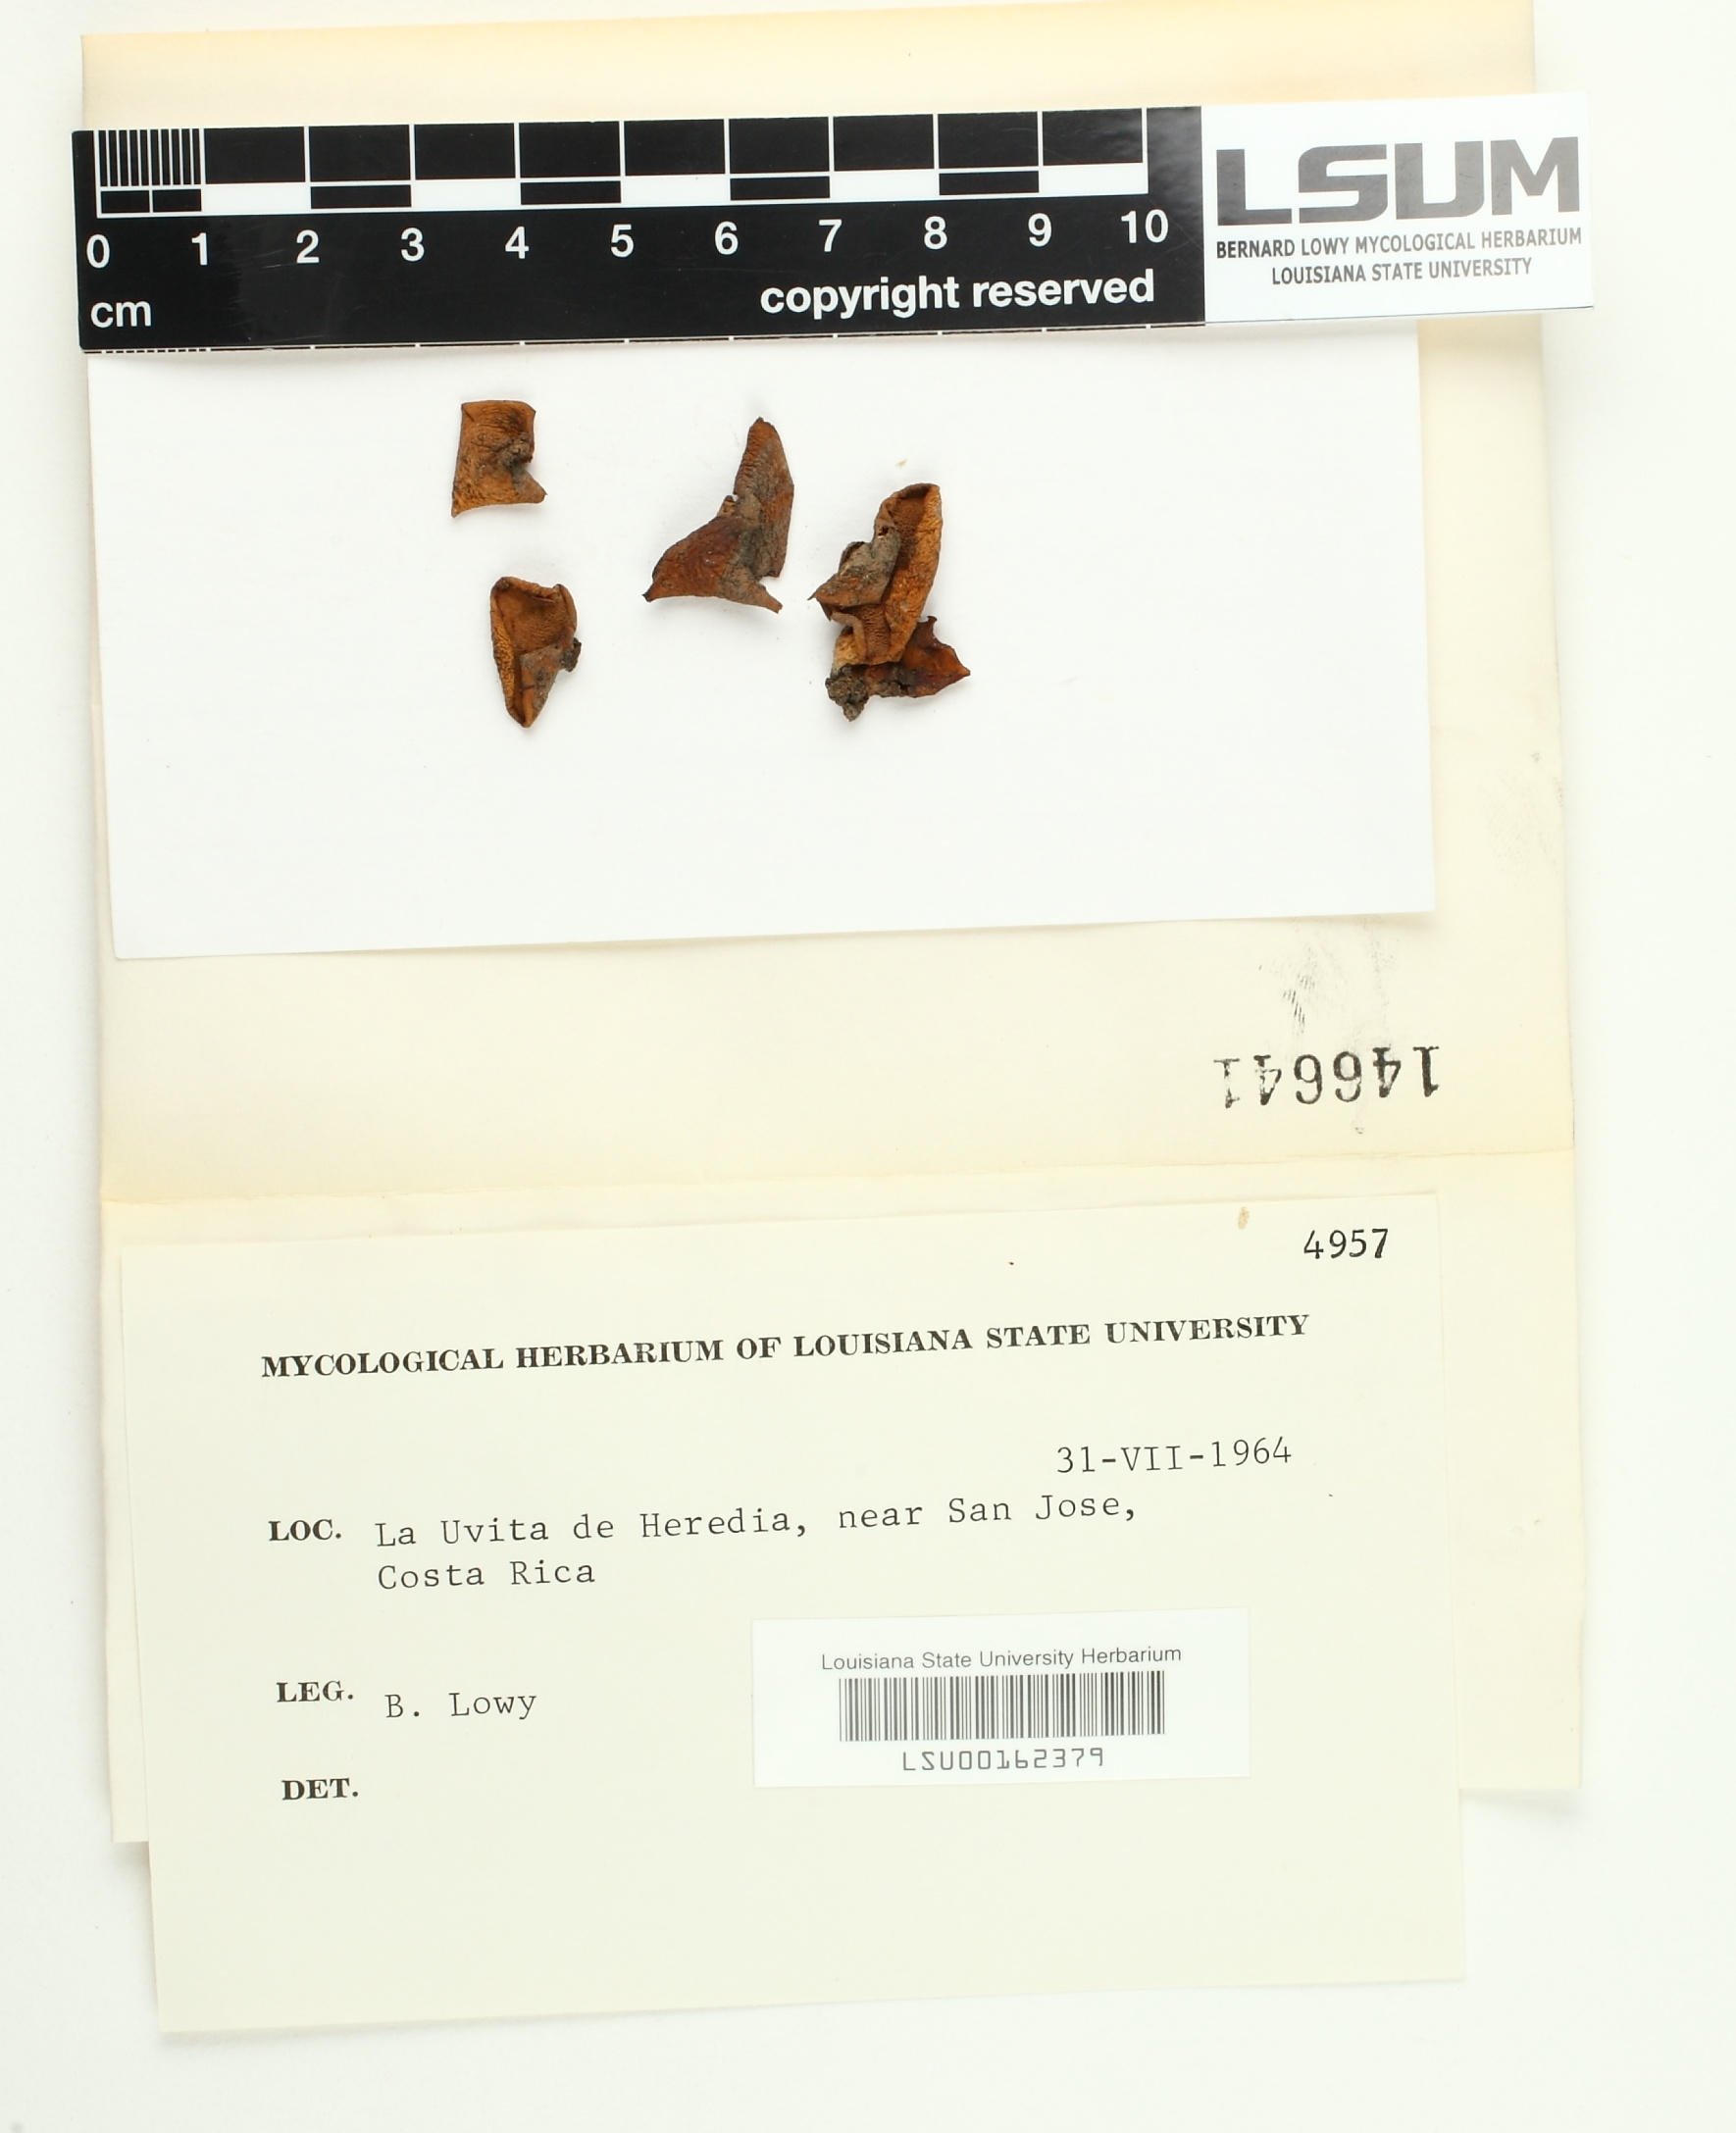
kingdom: Fungi
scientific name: Fungi
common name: Fungi
